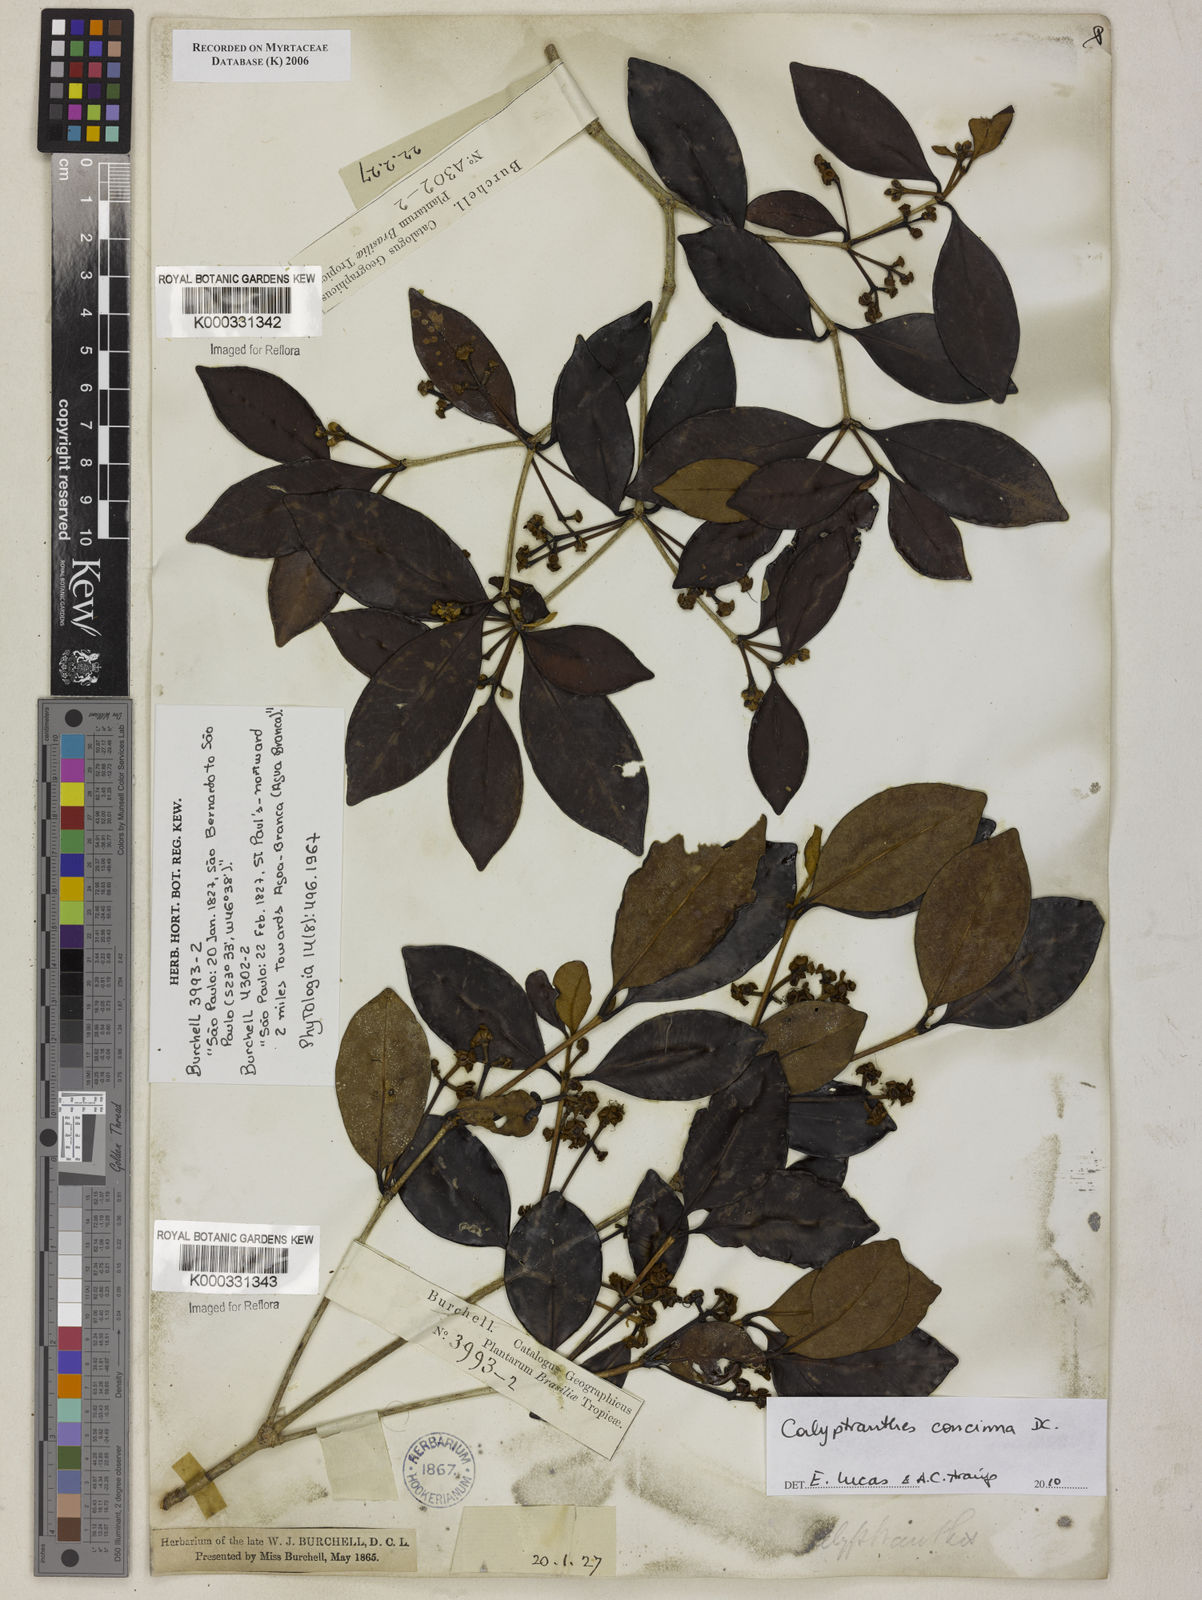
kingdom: Plantae
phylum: Tracheophyta
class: Magnoliopsida
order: Myrtales
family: Myrtaceae
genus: Calyptranthes
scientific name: Calyptranthes
